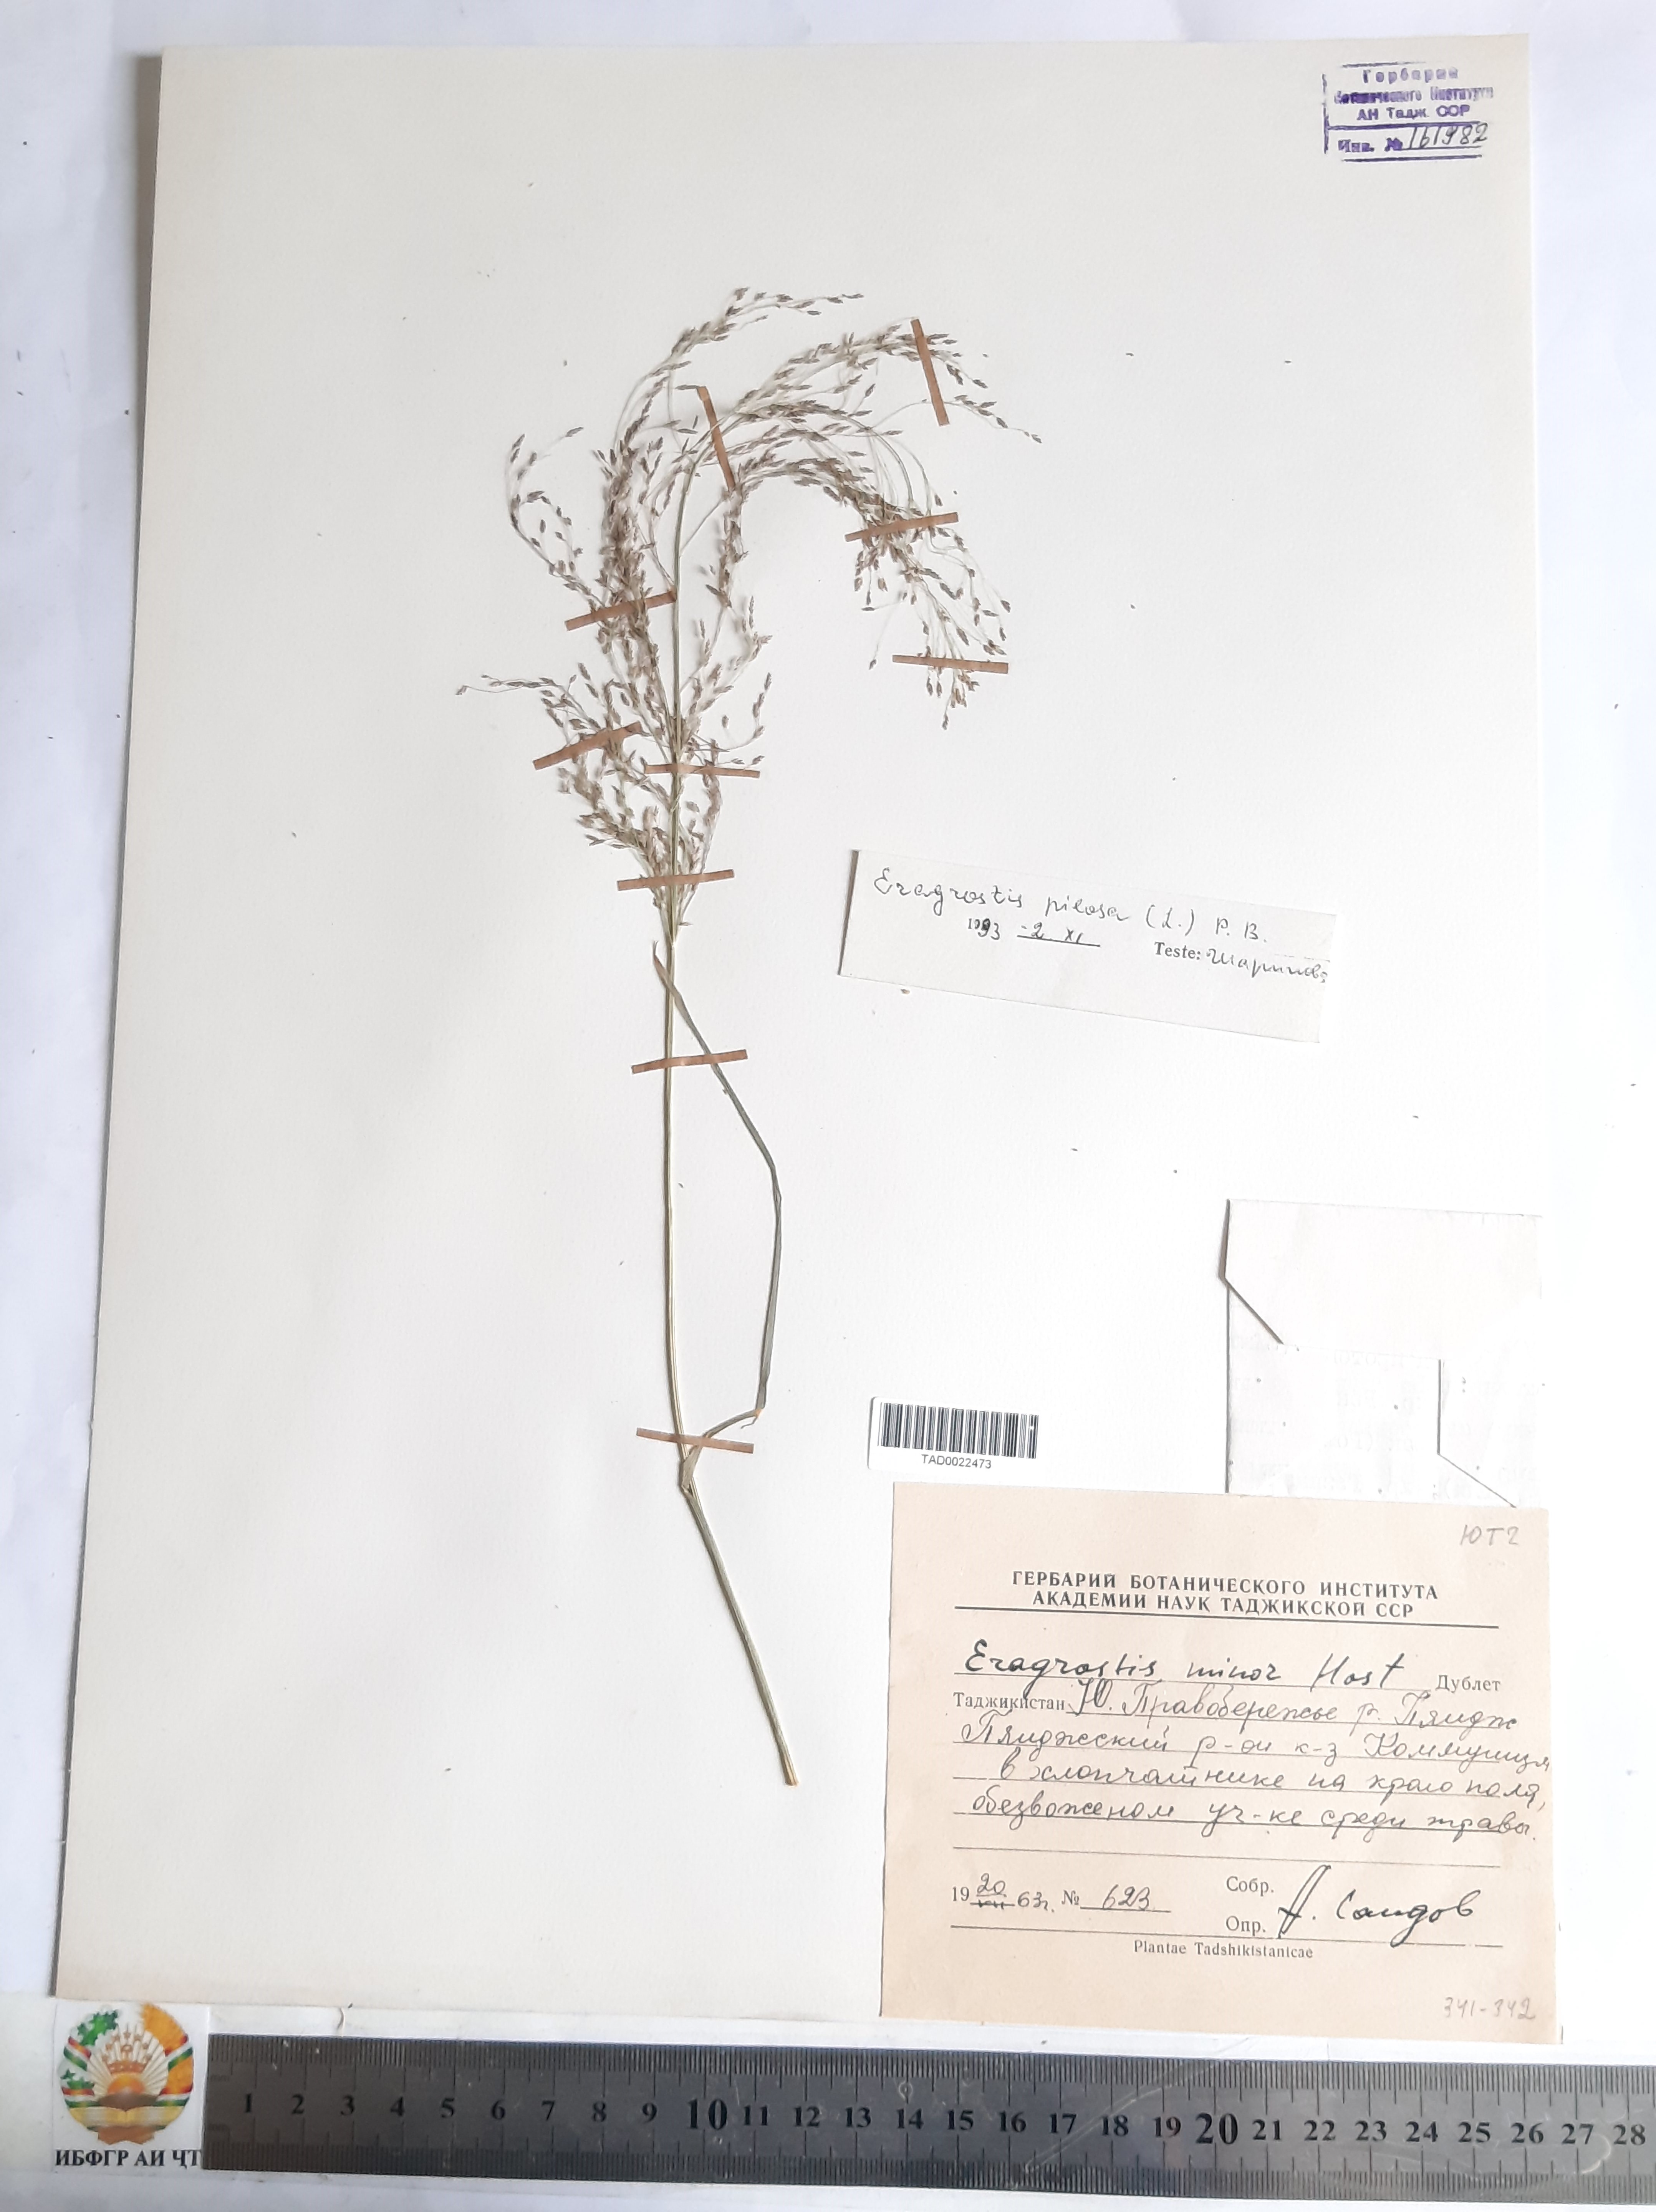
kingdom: Plantae
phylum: Tracheophyta
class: Liliopsida
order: Poales
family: Poaceae
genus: Eragrostis
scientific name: Eragrostis pilosa
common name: Indian lovegrass
